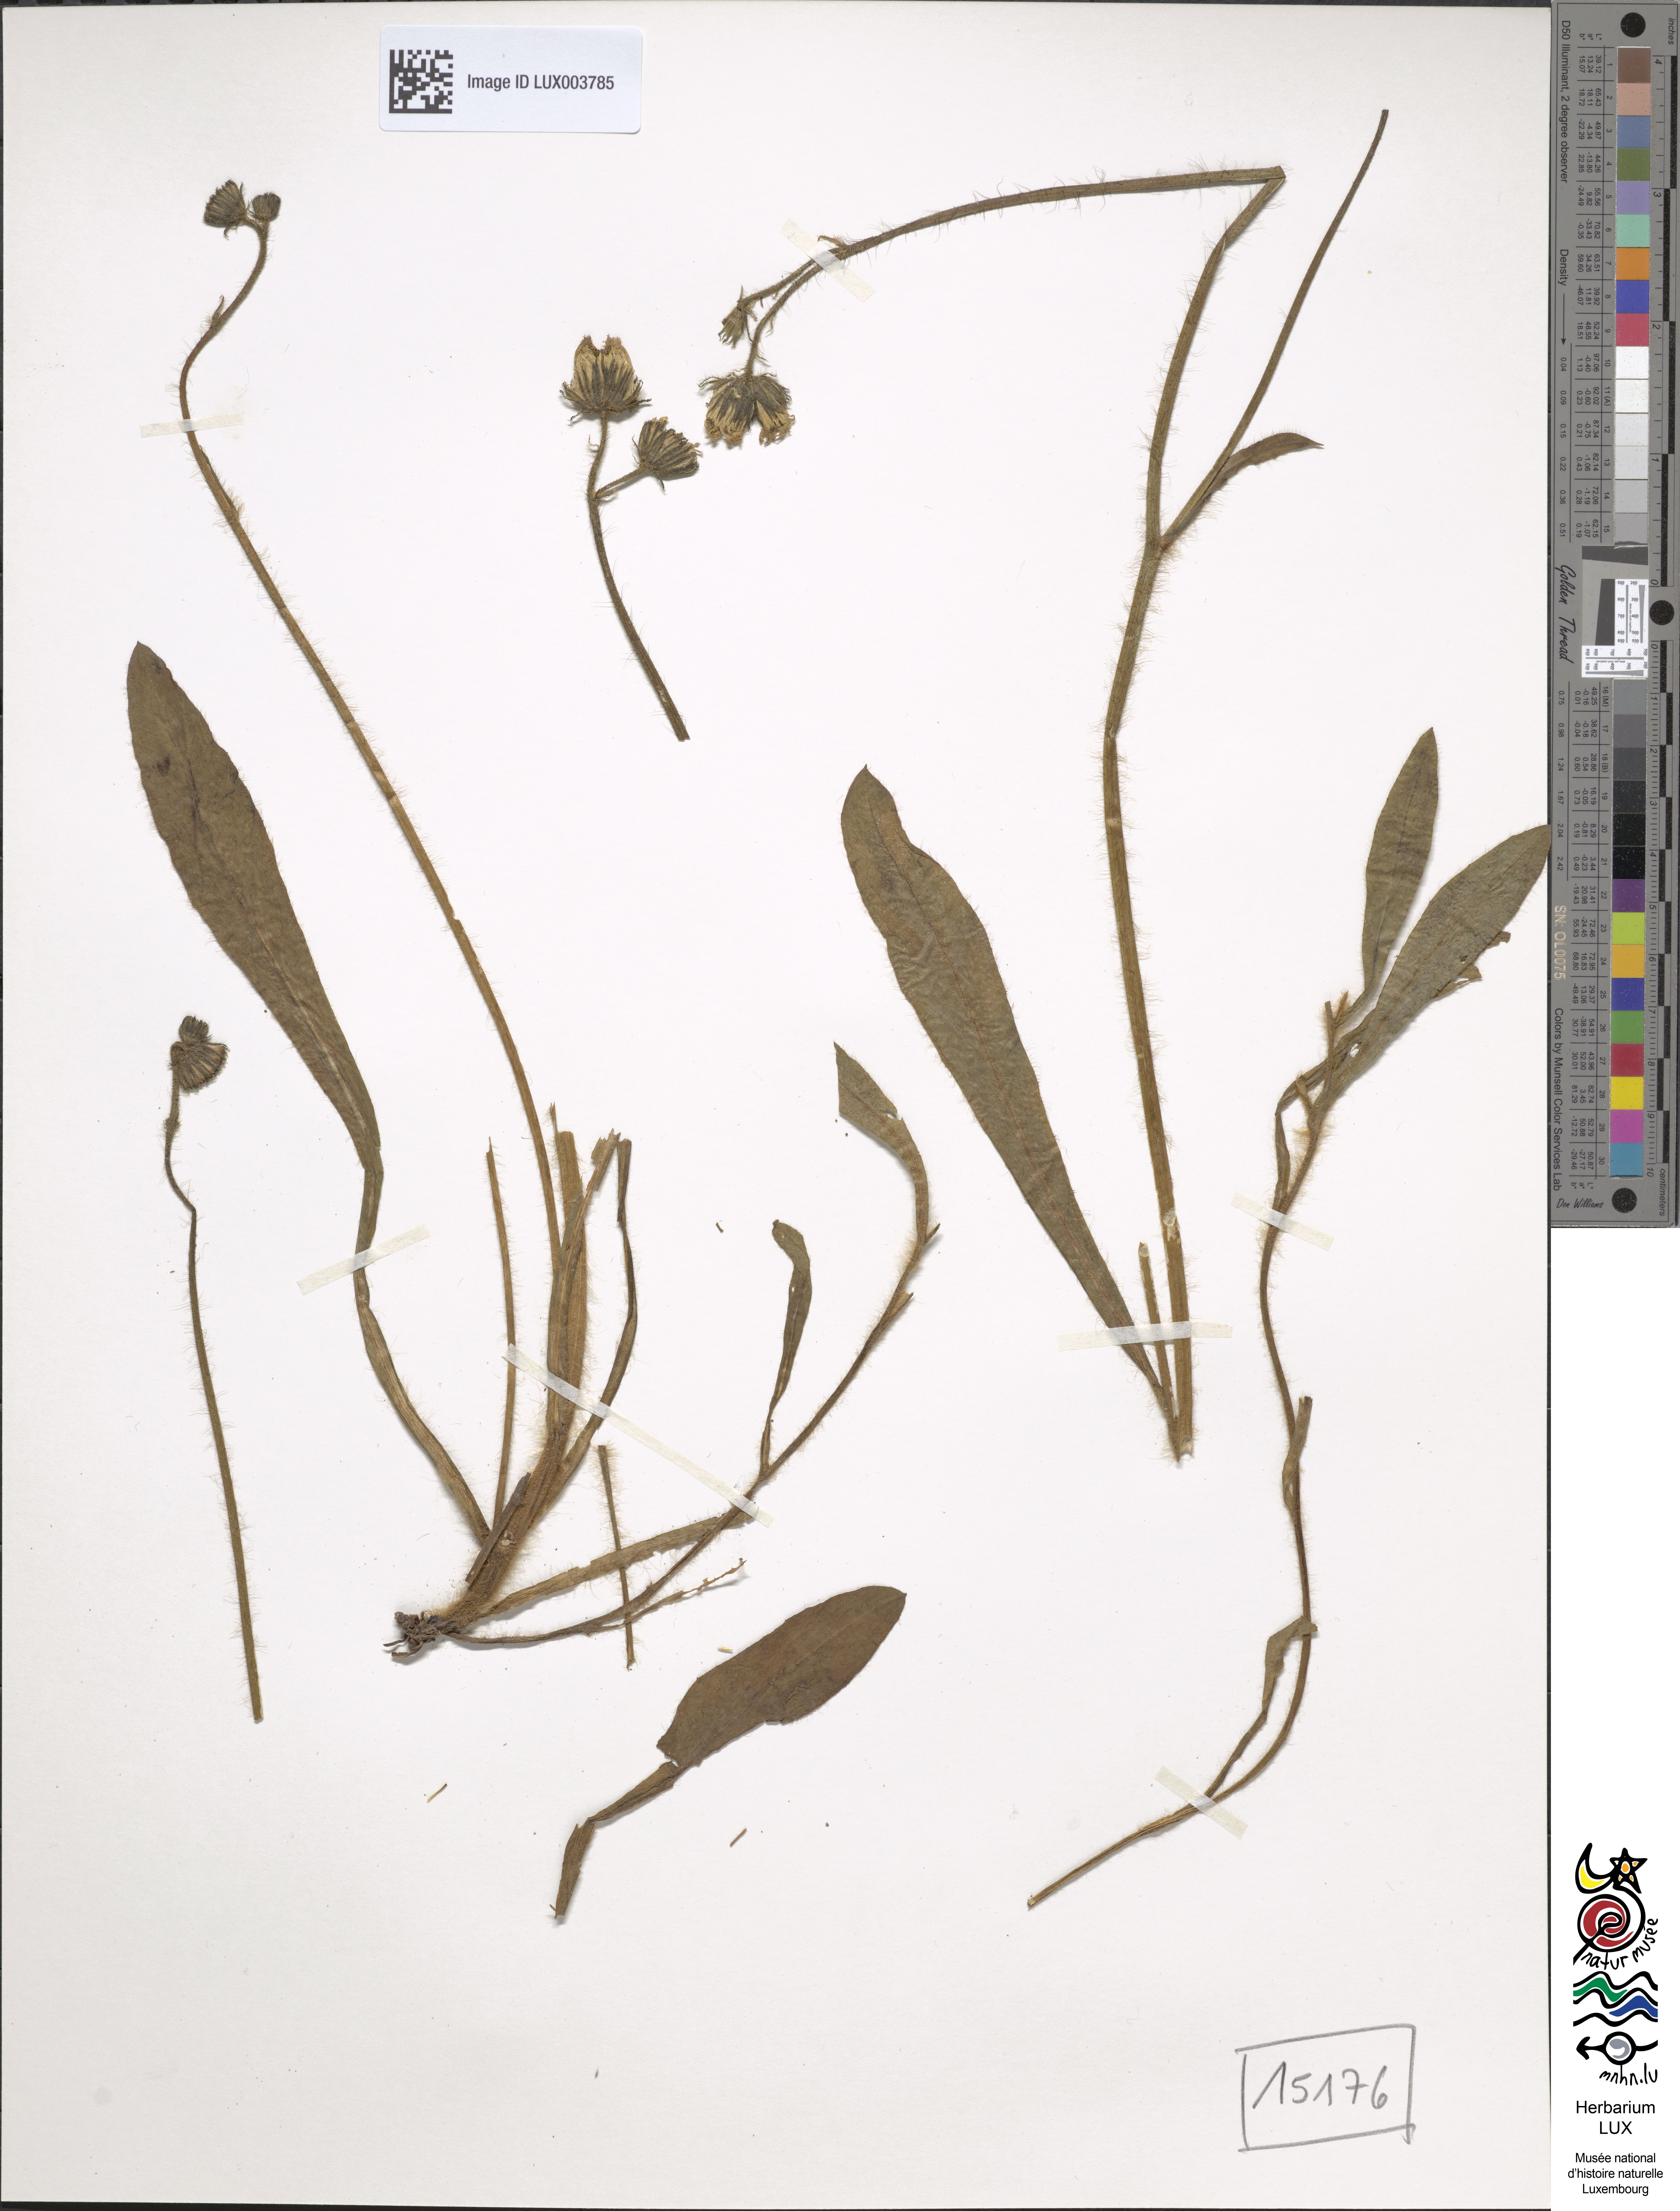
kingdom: Plantae
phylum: Tracheophyta
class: Magnoliopsida
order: Asterales
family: Asteraceae
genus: Pilosella
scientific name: Pilosella bifurca
